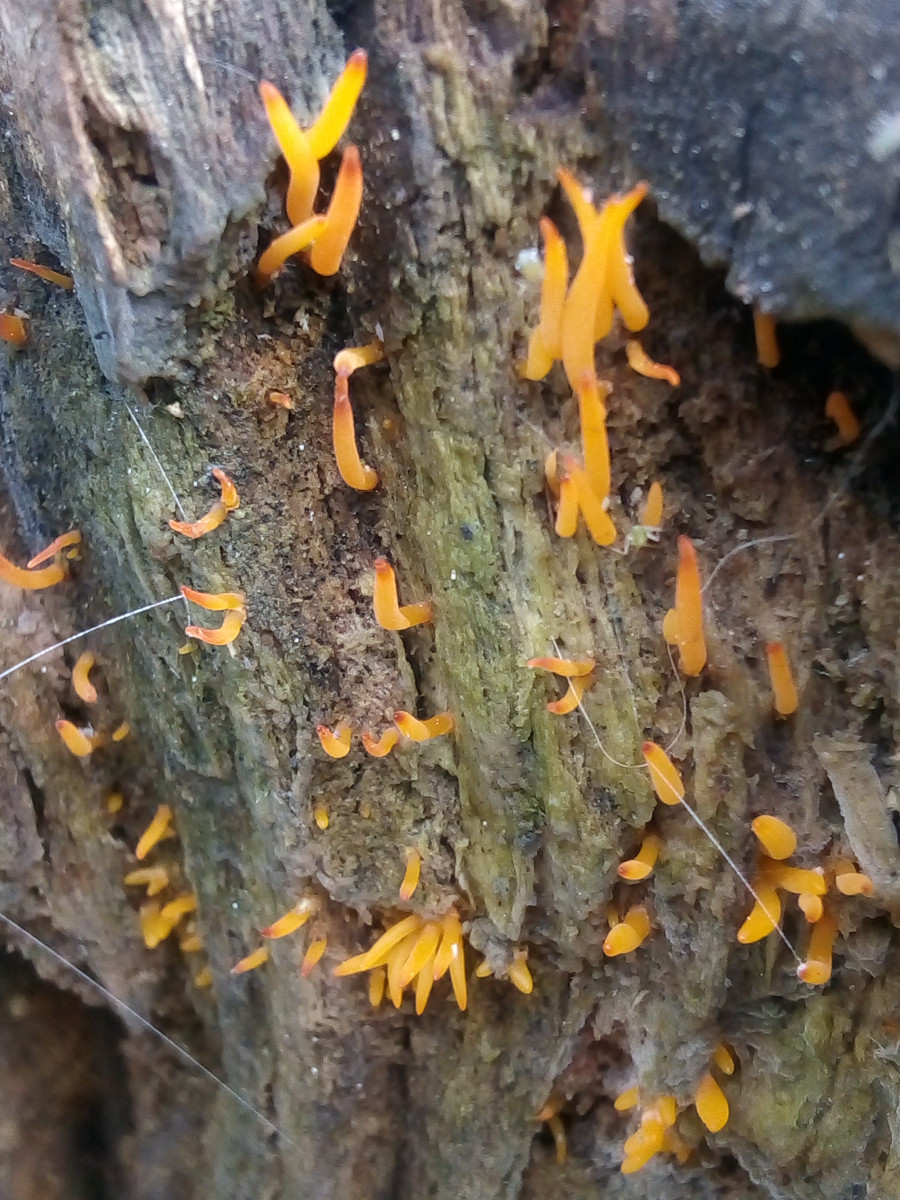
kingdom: Fungi
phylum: Basidiomycota
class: Dacrymycetes
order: Dacrymycetales
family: Dacrymycetaceae
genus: Calocera
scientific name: Calocera cornea
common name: liden guldgaffel
